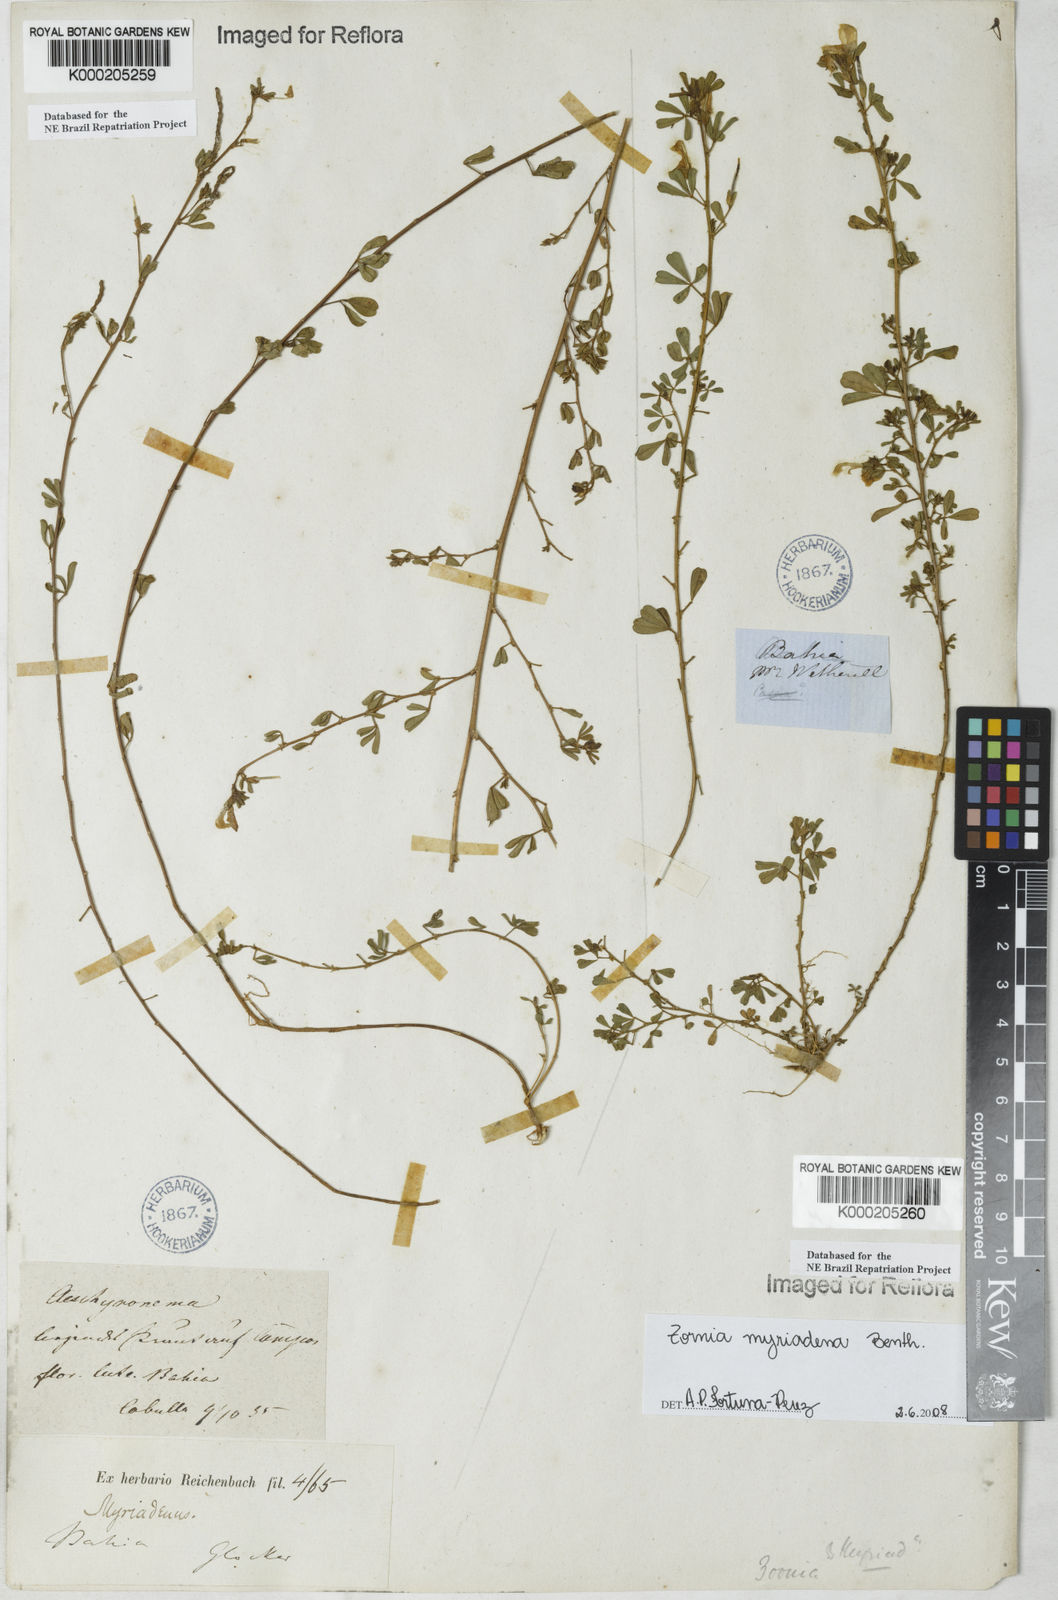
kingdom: Plantae
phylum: Tracheophyta
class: Magnoliopsida
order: Fabales
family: Fabaceae
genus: Zornia
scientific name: Zornia myriadena
